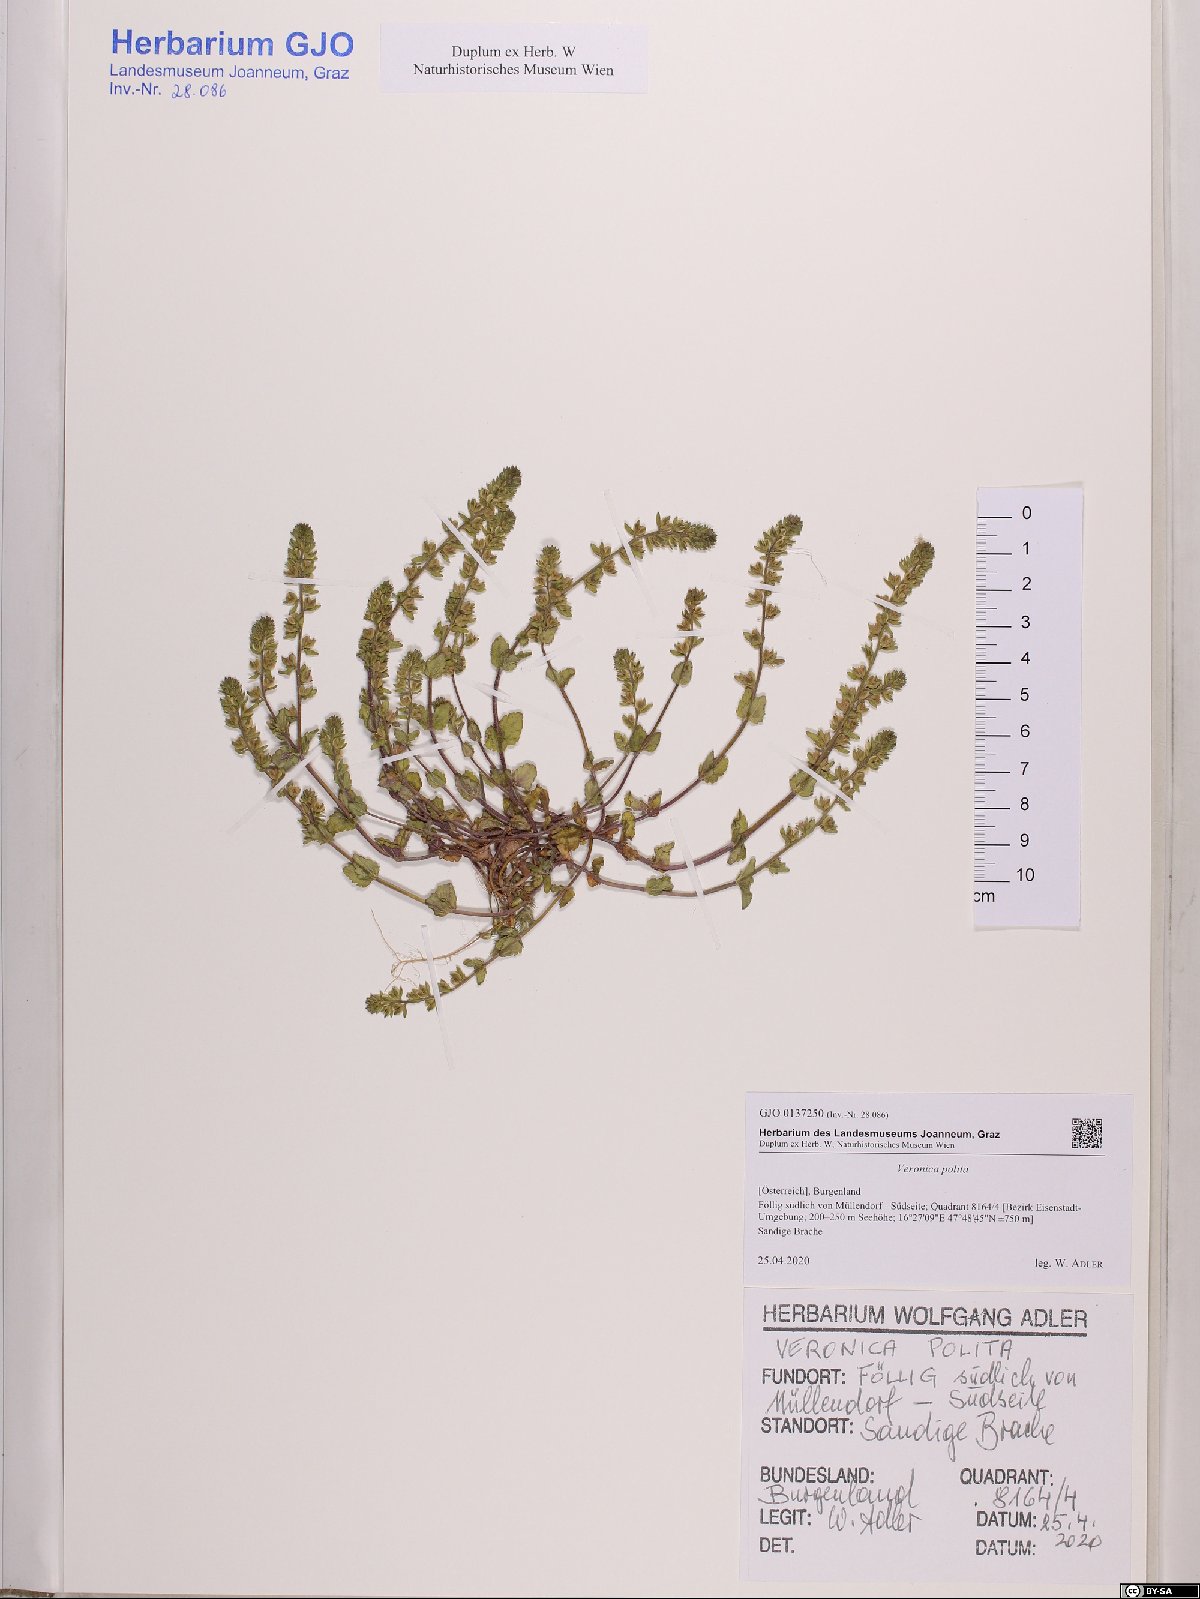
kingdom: Plantae
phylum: Tracheophyta
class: Magnoliopsida
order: Lamiales
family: Plantaginaceae
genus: Veronica
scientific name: Veronica polita
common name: Grey field-speedwell
